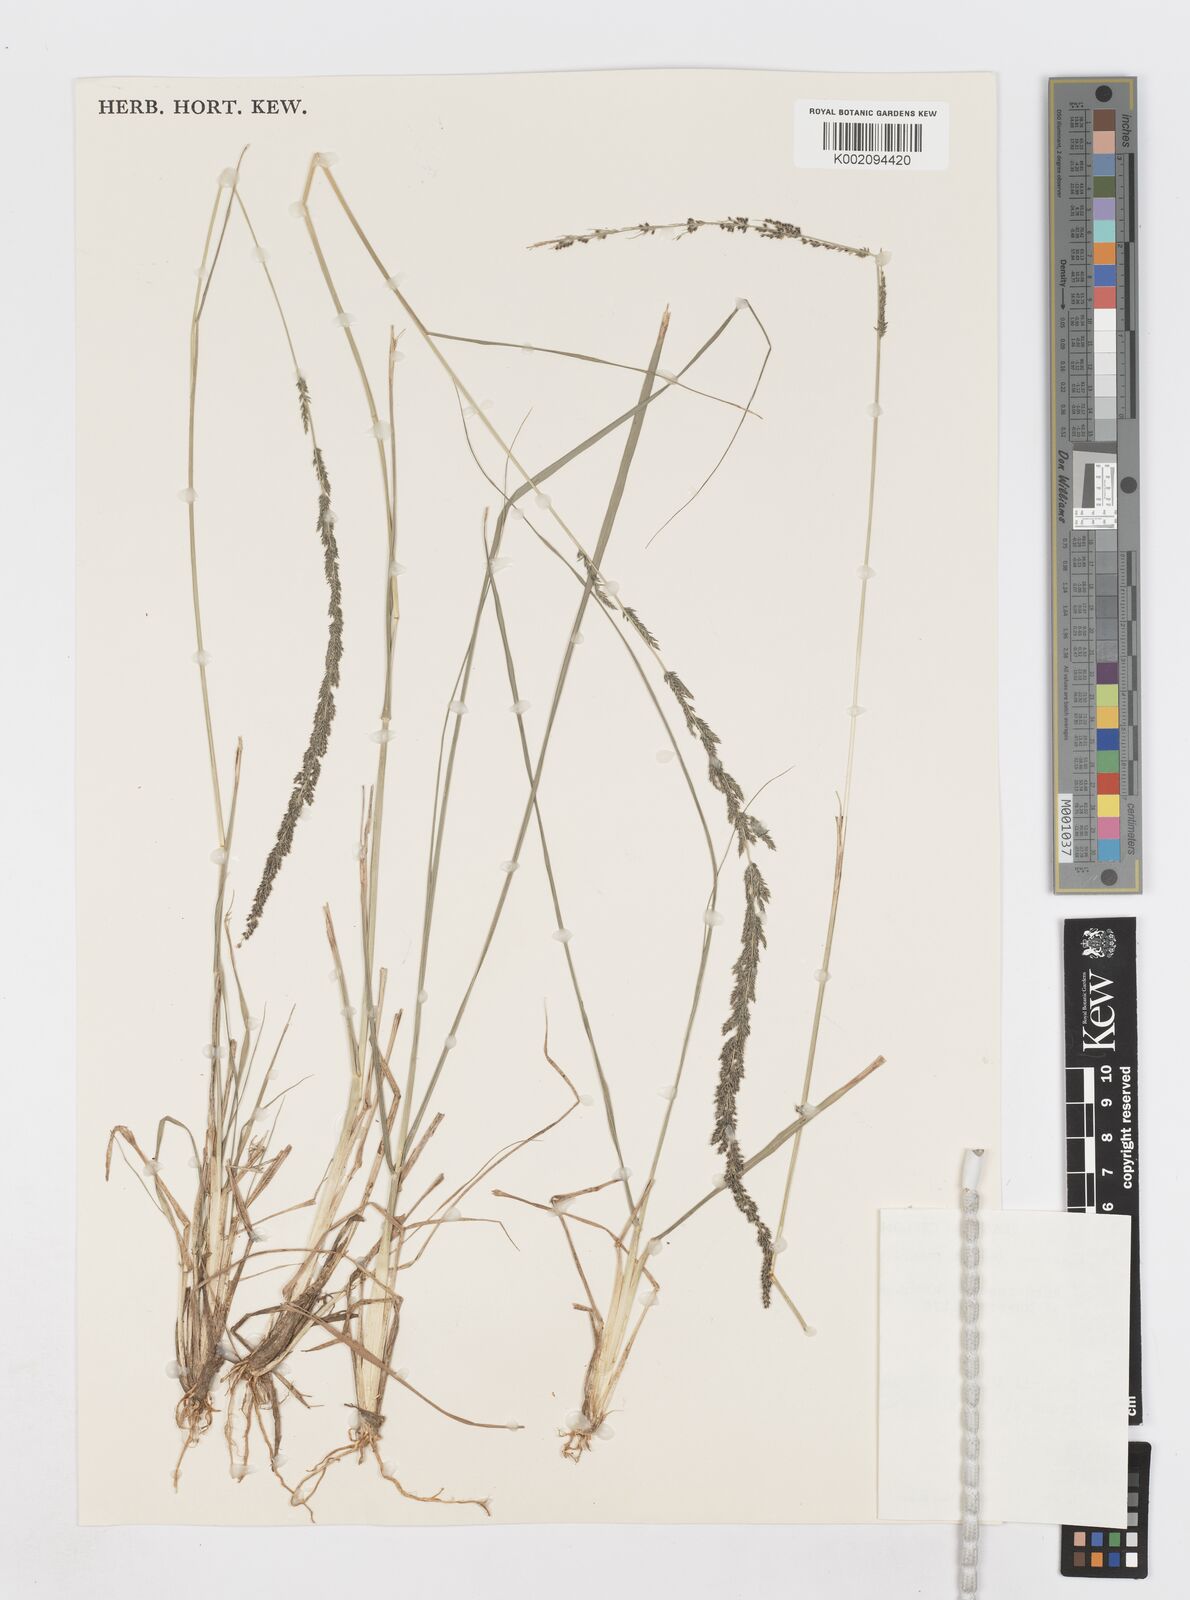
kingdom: Plantae
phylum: Tracheophyta
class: Liliopsida
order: Poales
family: Poaceae
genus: Sporobolus
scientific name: Sporobolus fertilis
